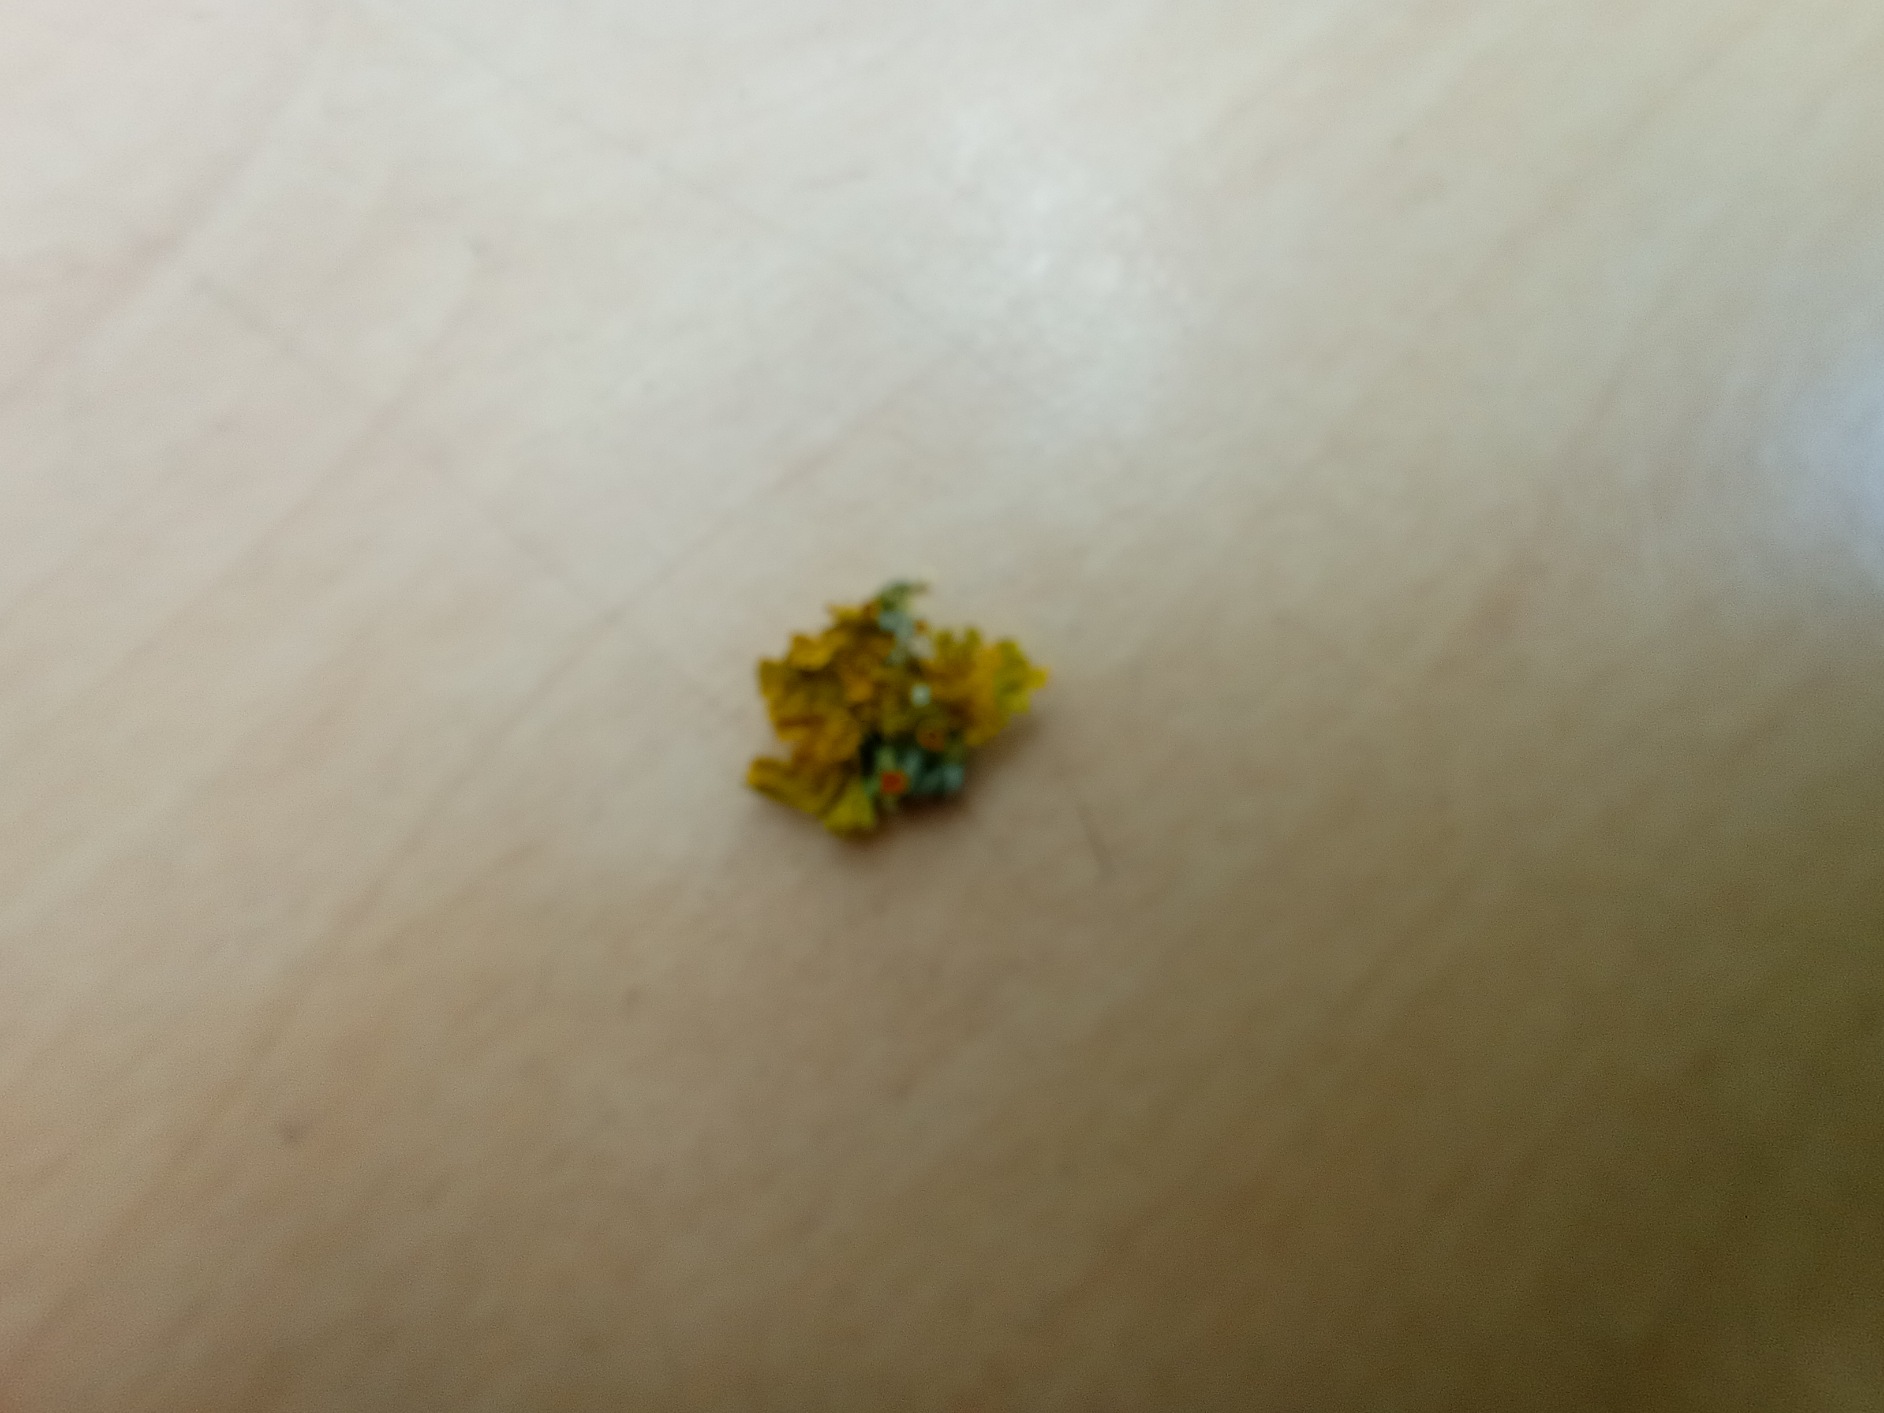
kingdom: Fungi
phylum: Ascomycota
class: Lecanoromycetes
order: Teloschistales
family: Teloschistaceae
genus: Xanthoria
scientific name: Xanthoria parietina
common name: Almindelig væggelav
